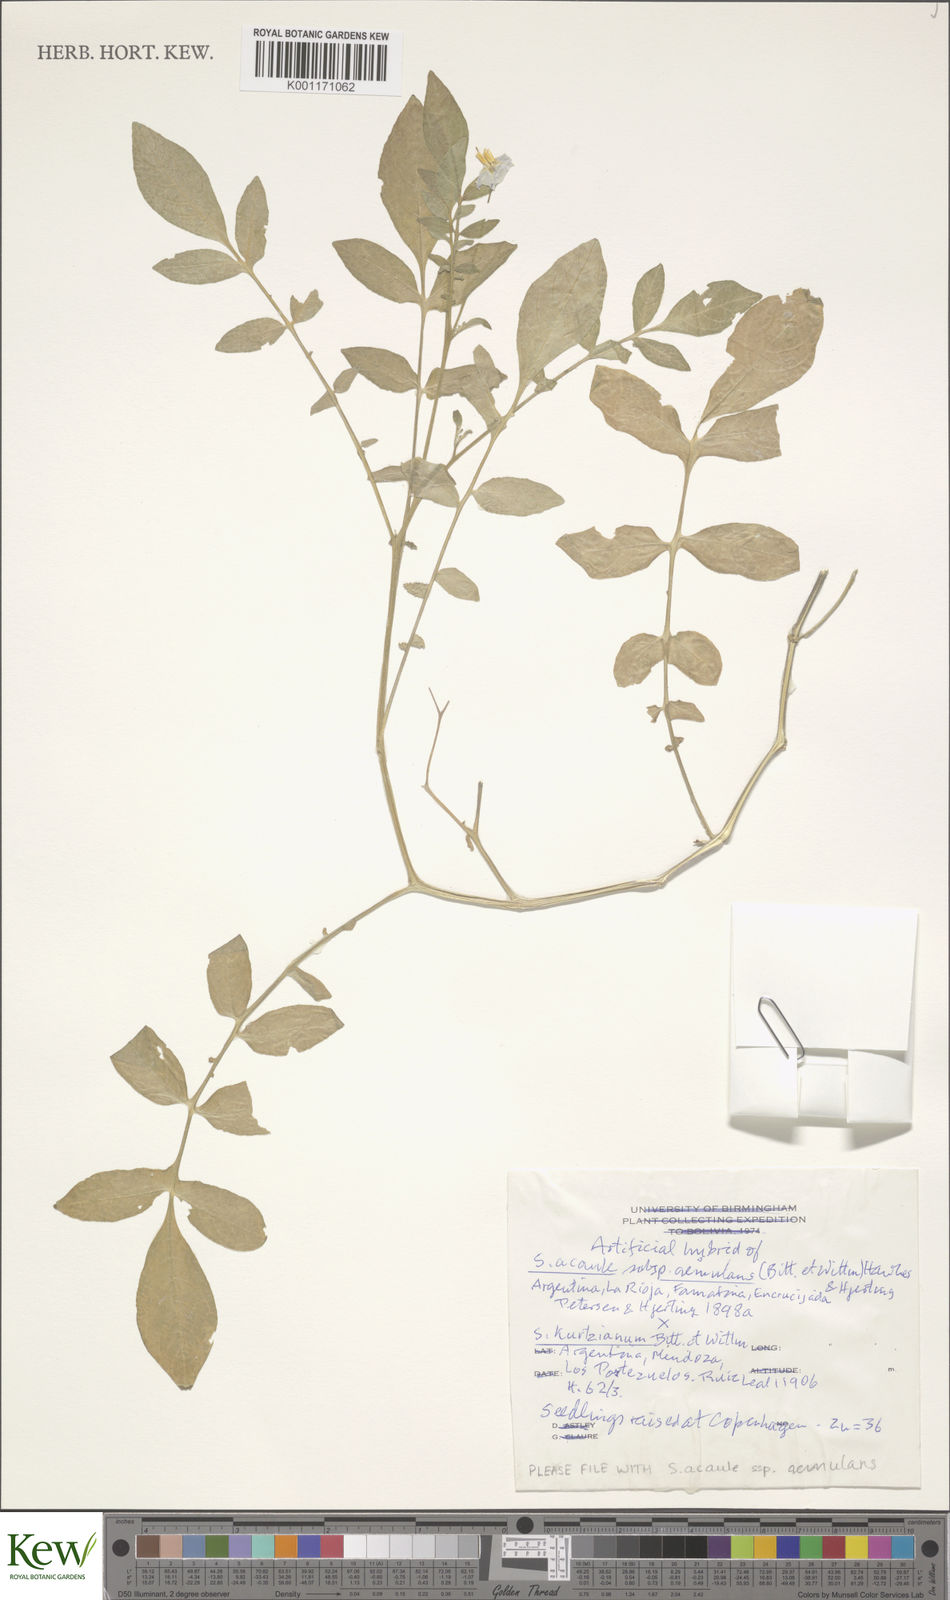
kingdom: Plantae
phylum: Tracheophyta
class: Magnoliopsida
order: Solanales
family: Solanaceae
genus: Solanum
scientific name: Solanum aemulans
